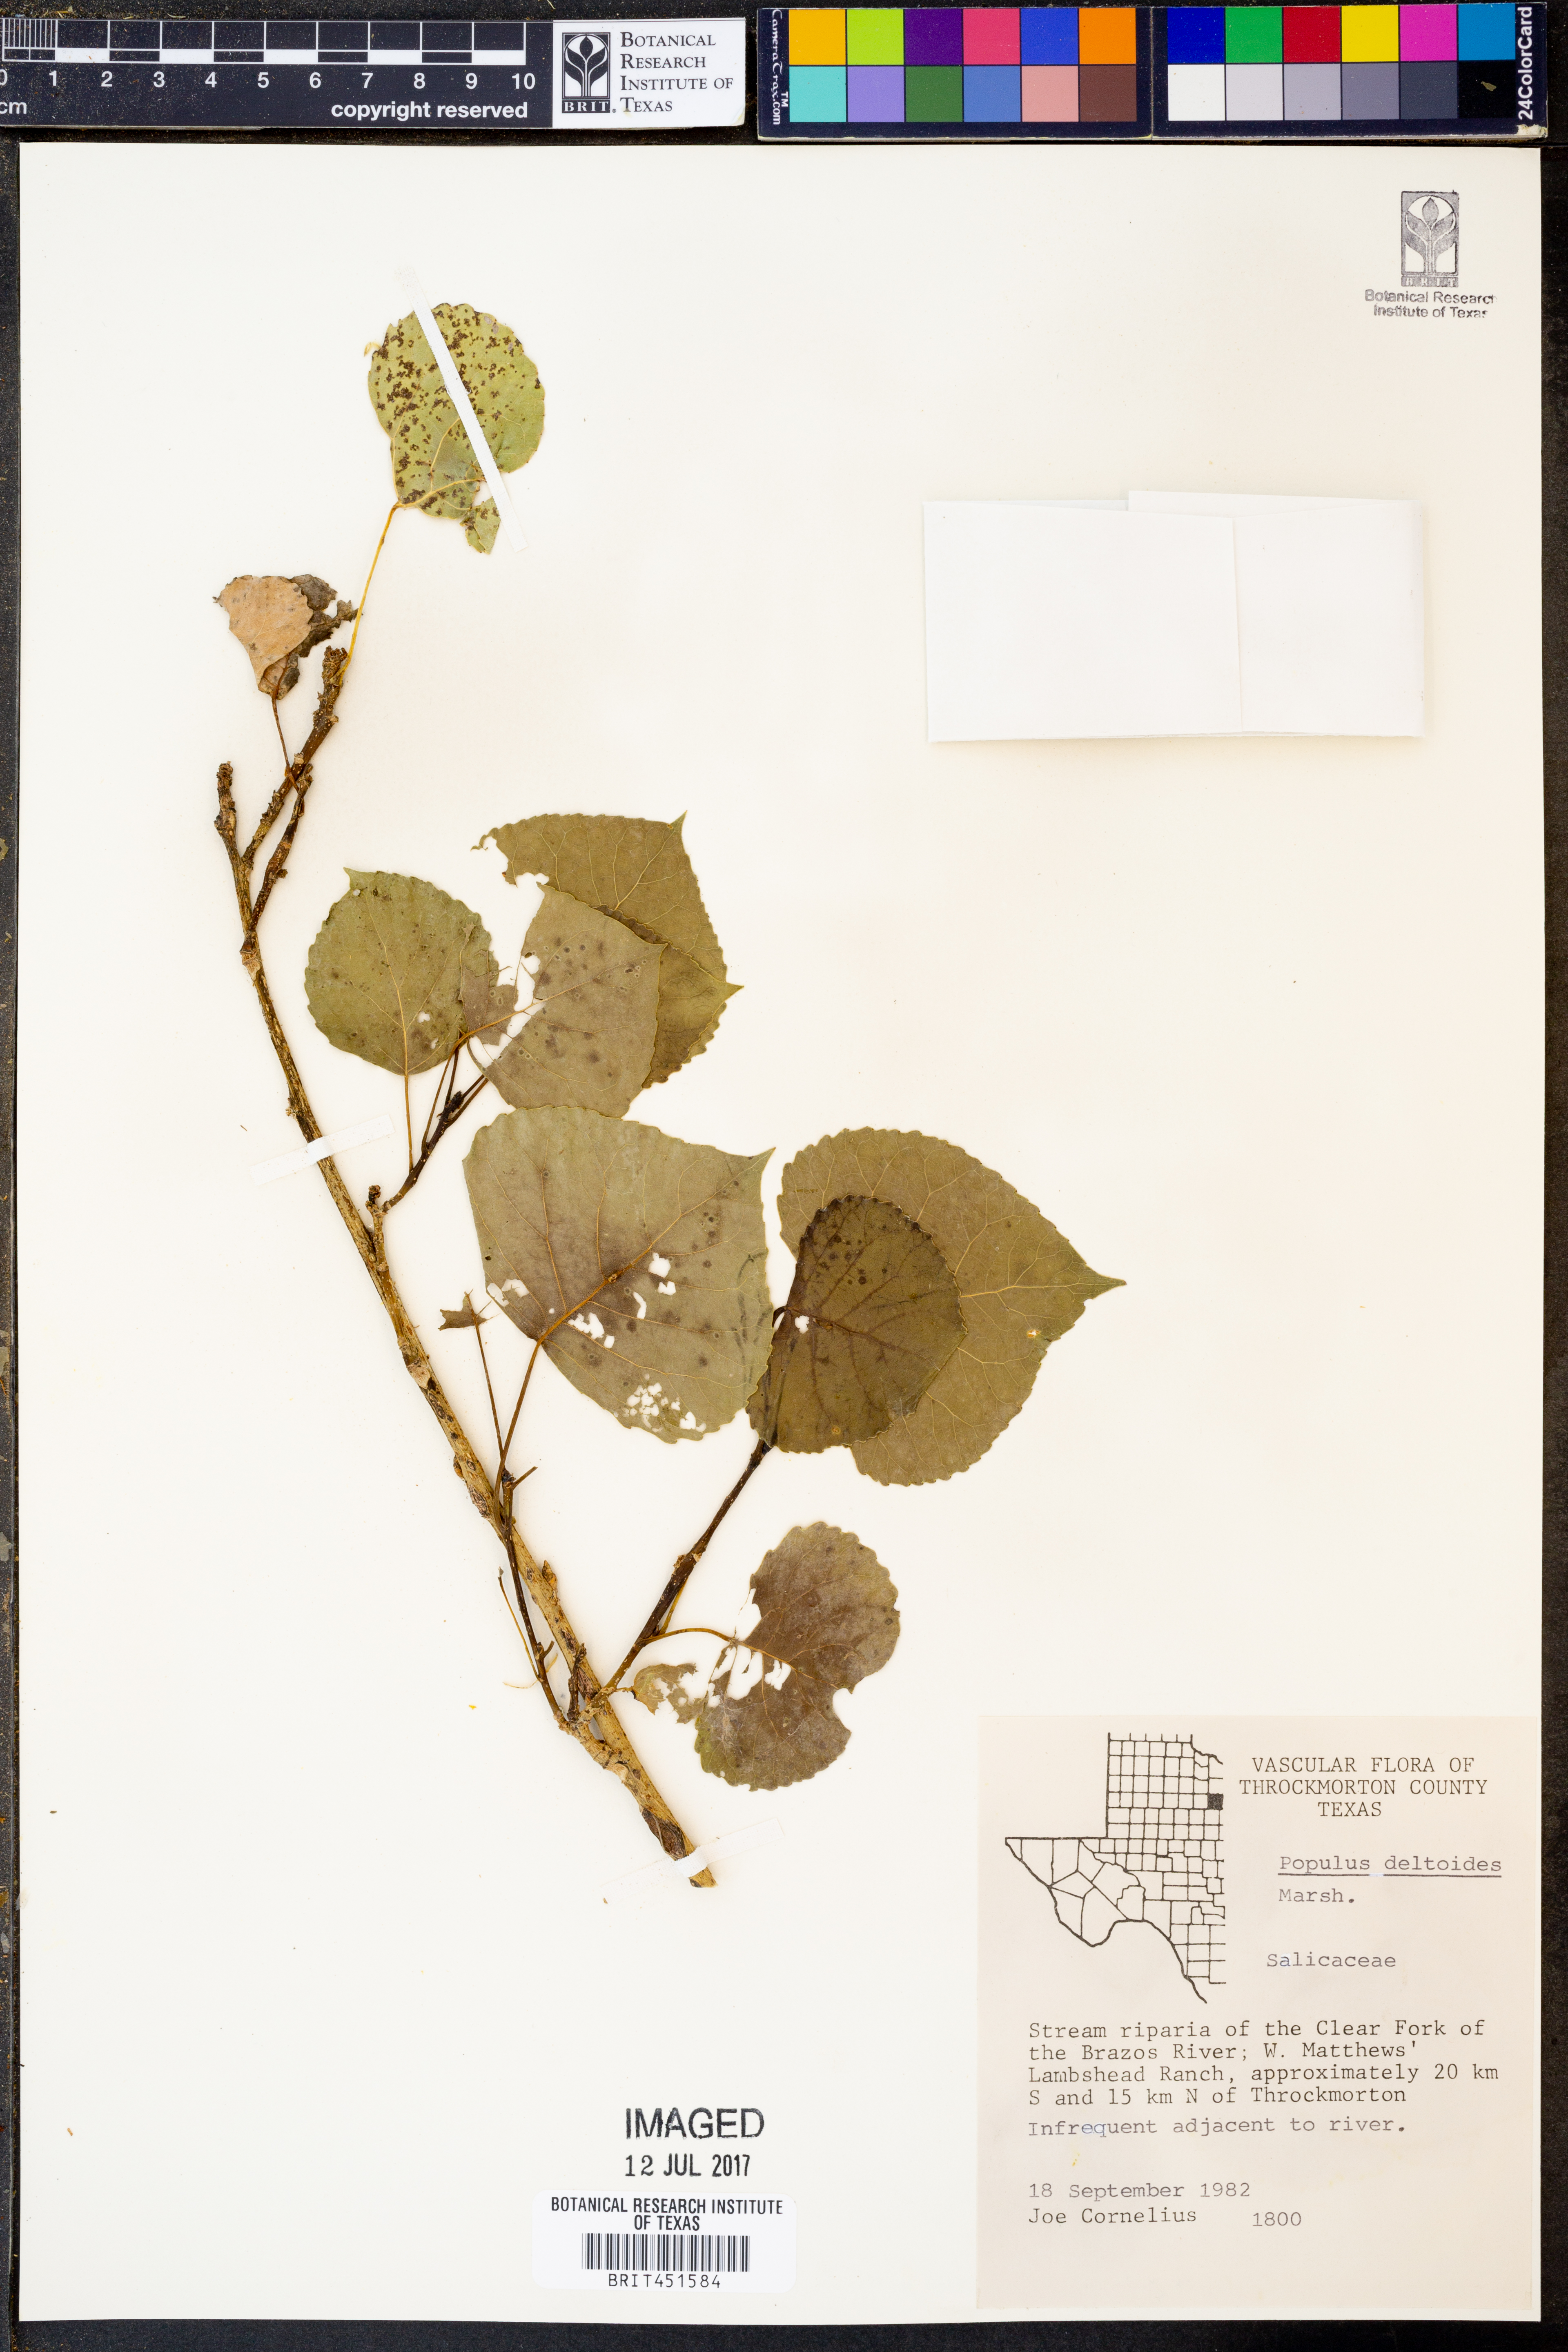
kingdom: Plantae
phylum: Tracheophyta
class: Magnoliopsida
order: Malpighiales
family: Salicaceae
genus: Populus
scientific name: Populus deltoides
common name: Eastern cottonwood
